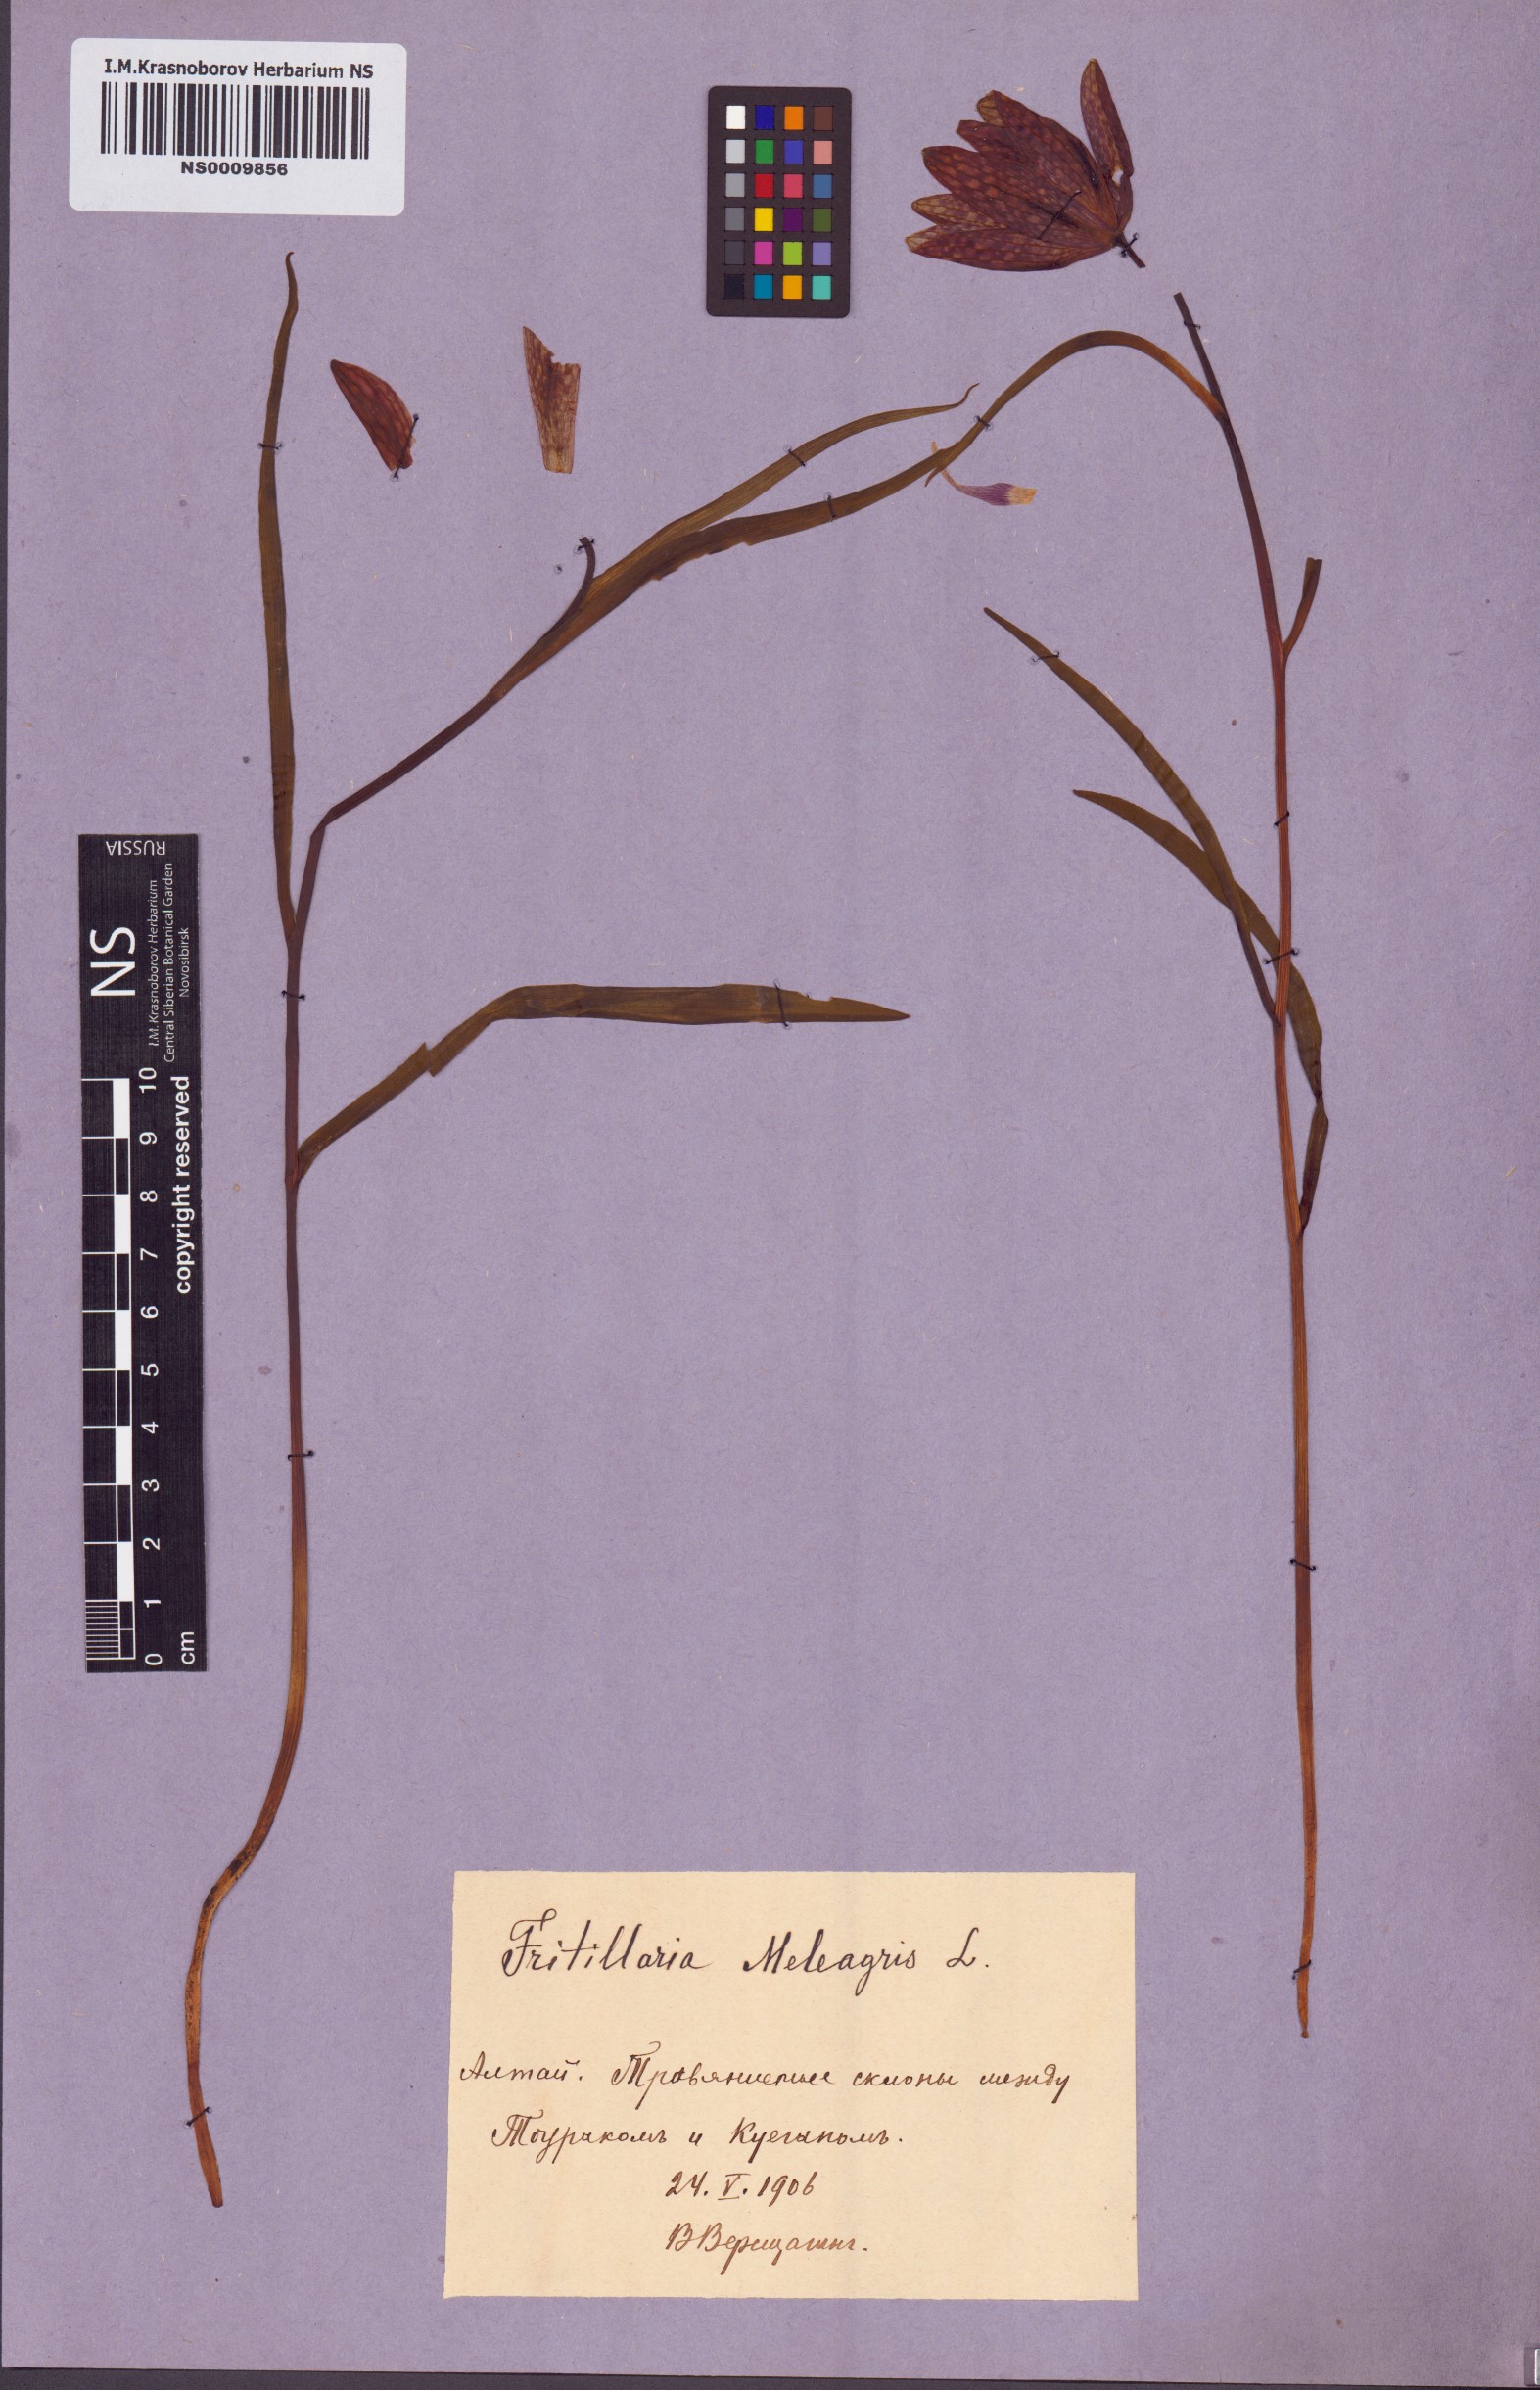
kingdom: Plantae
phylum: Tracheophyta
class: Liliopsida
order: Liliales
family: Liliaceae
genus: Fritillaria
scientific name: Fritillaria meleagris
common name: Fritillary
